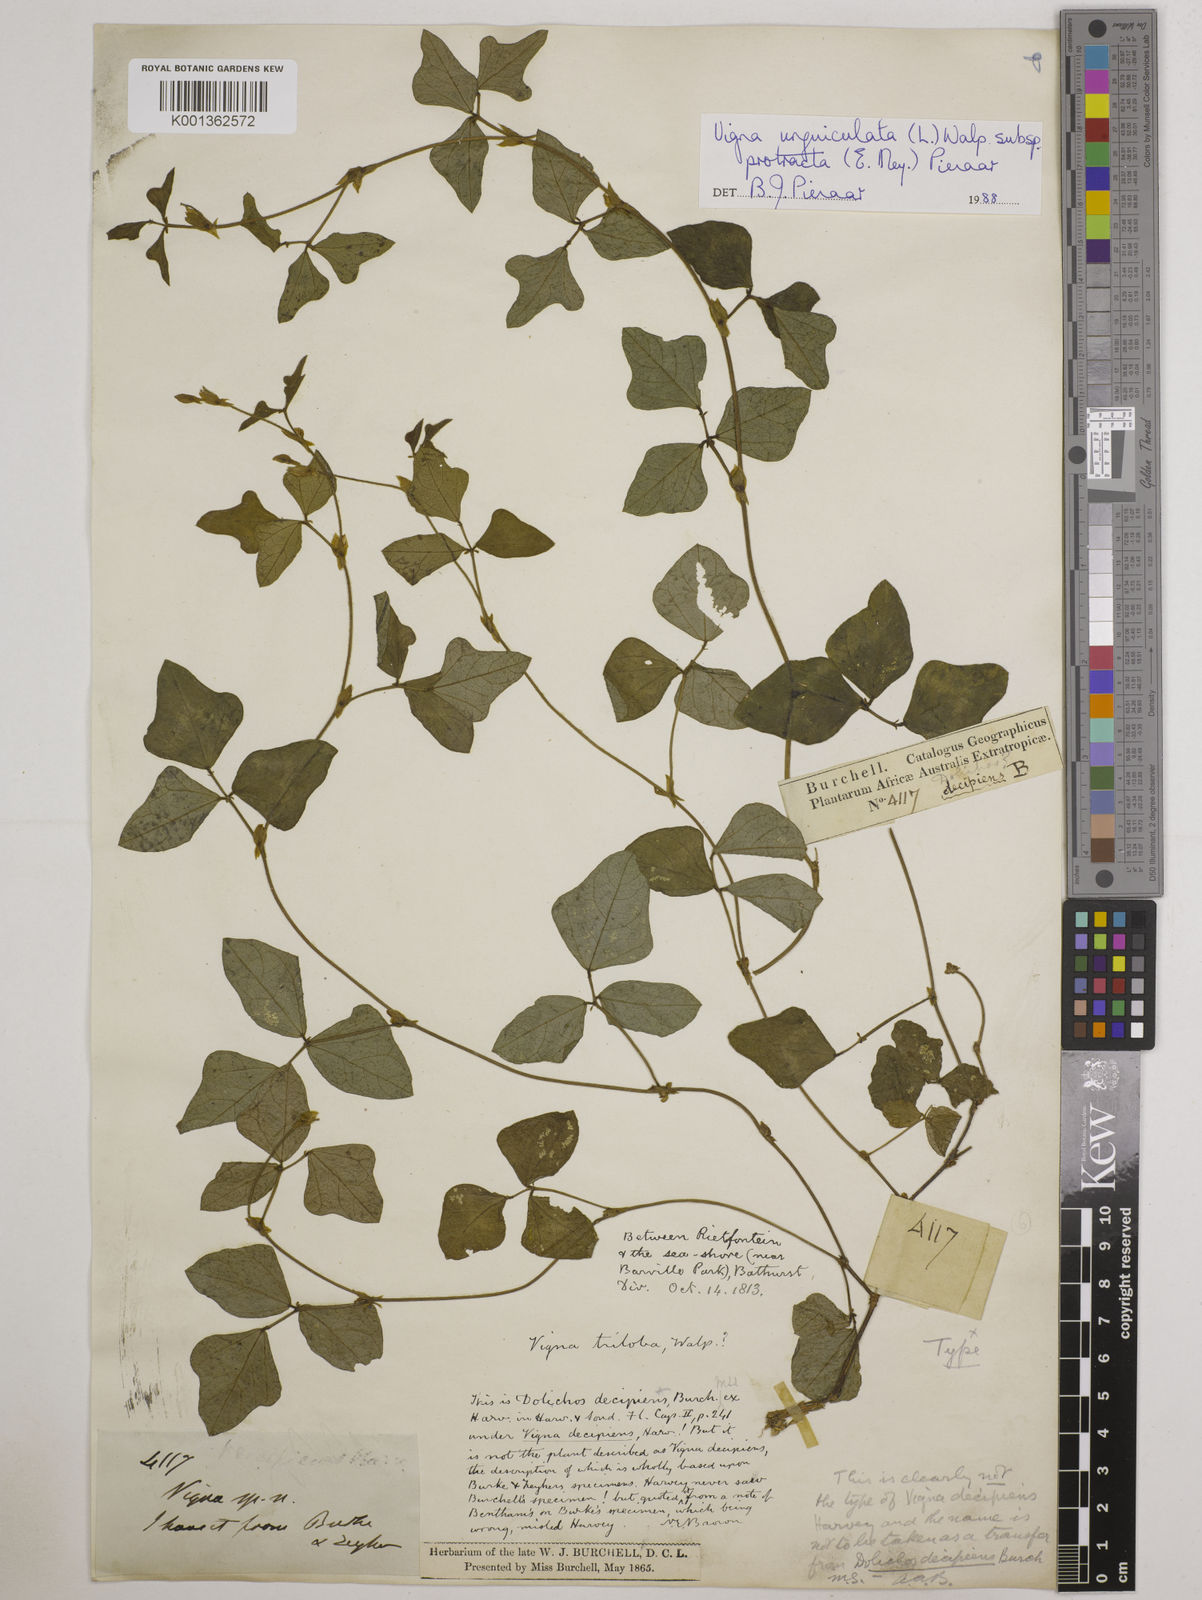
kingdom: Plantae
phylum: Tracheophyta
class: Magnoliopsida
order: Fabales
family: Fabaceae
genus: Vigna
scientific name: Vigna unguiculata
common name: Cowpea
